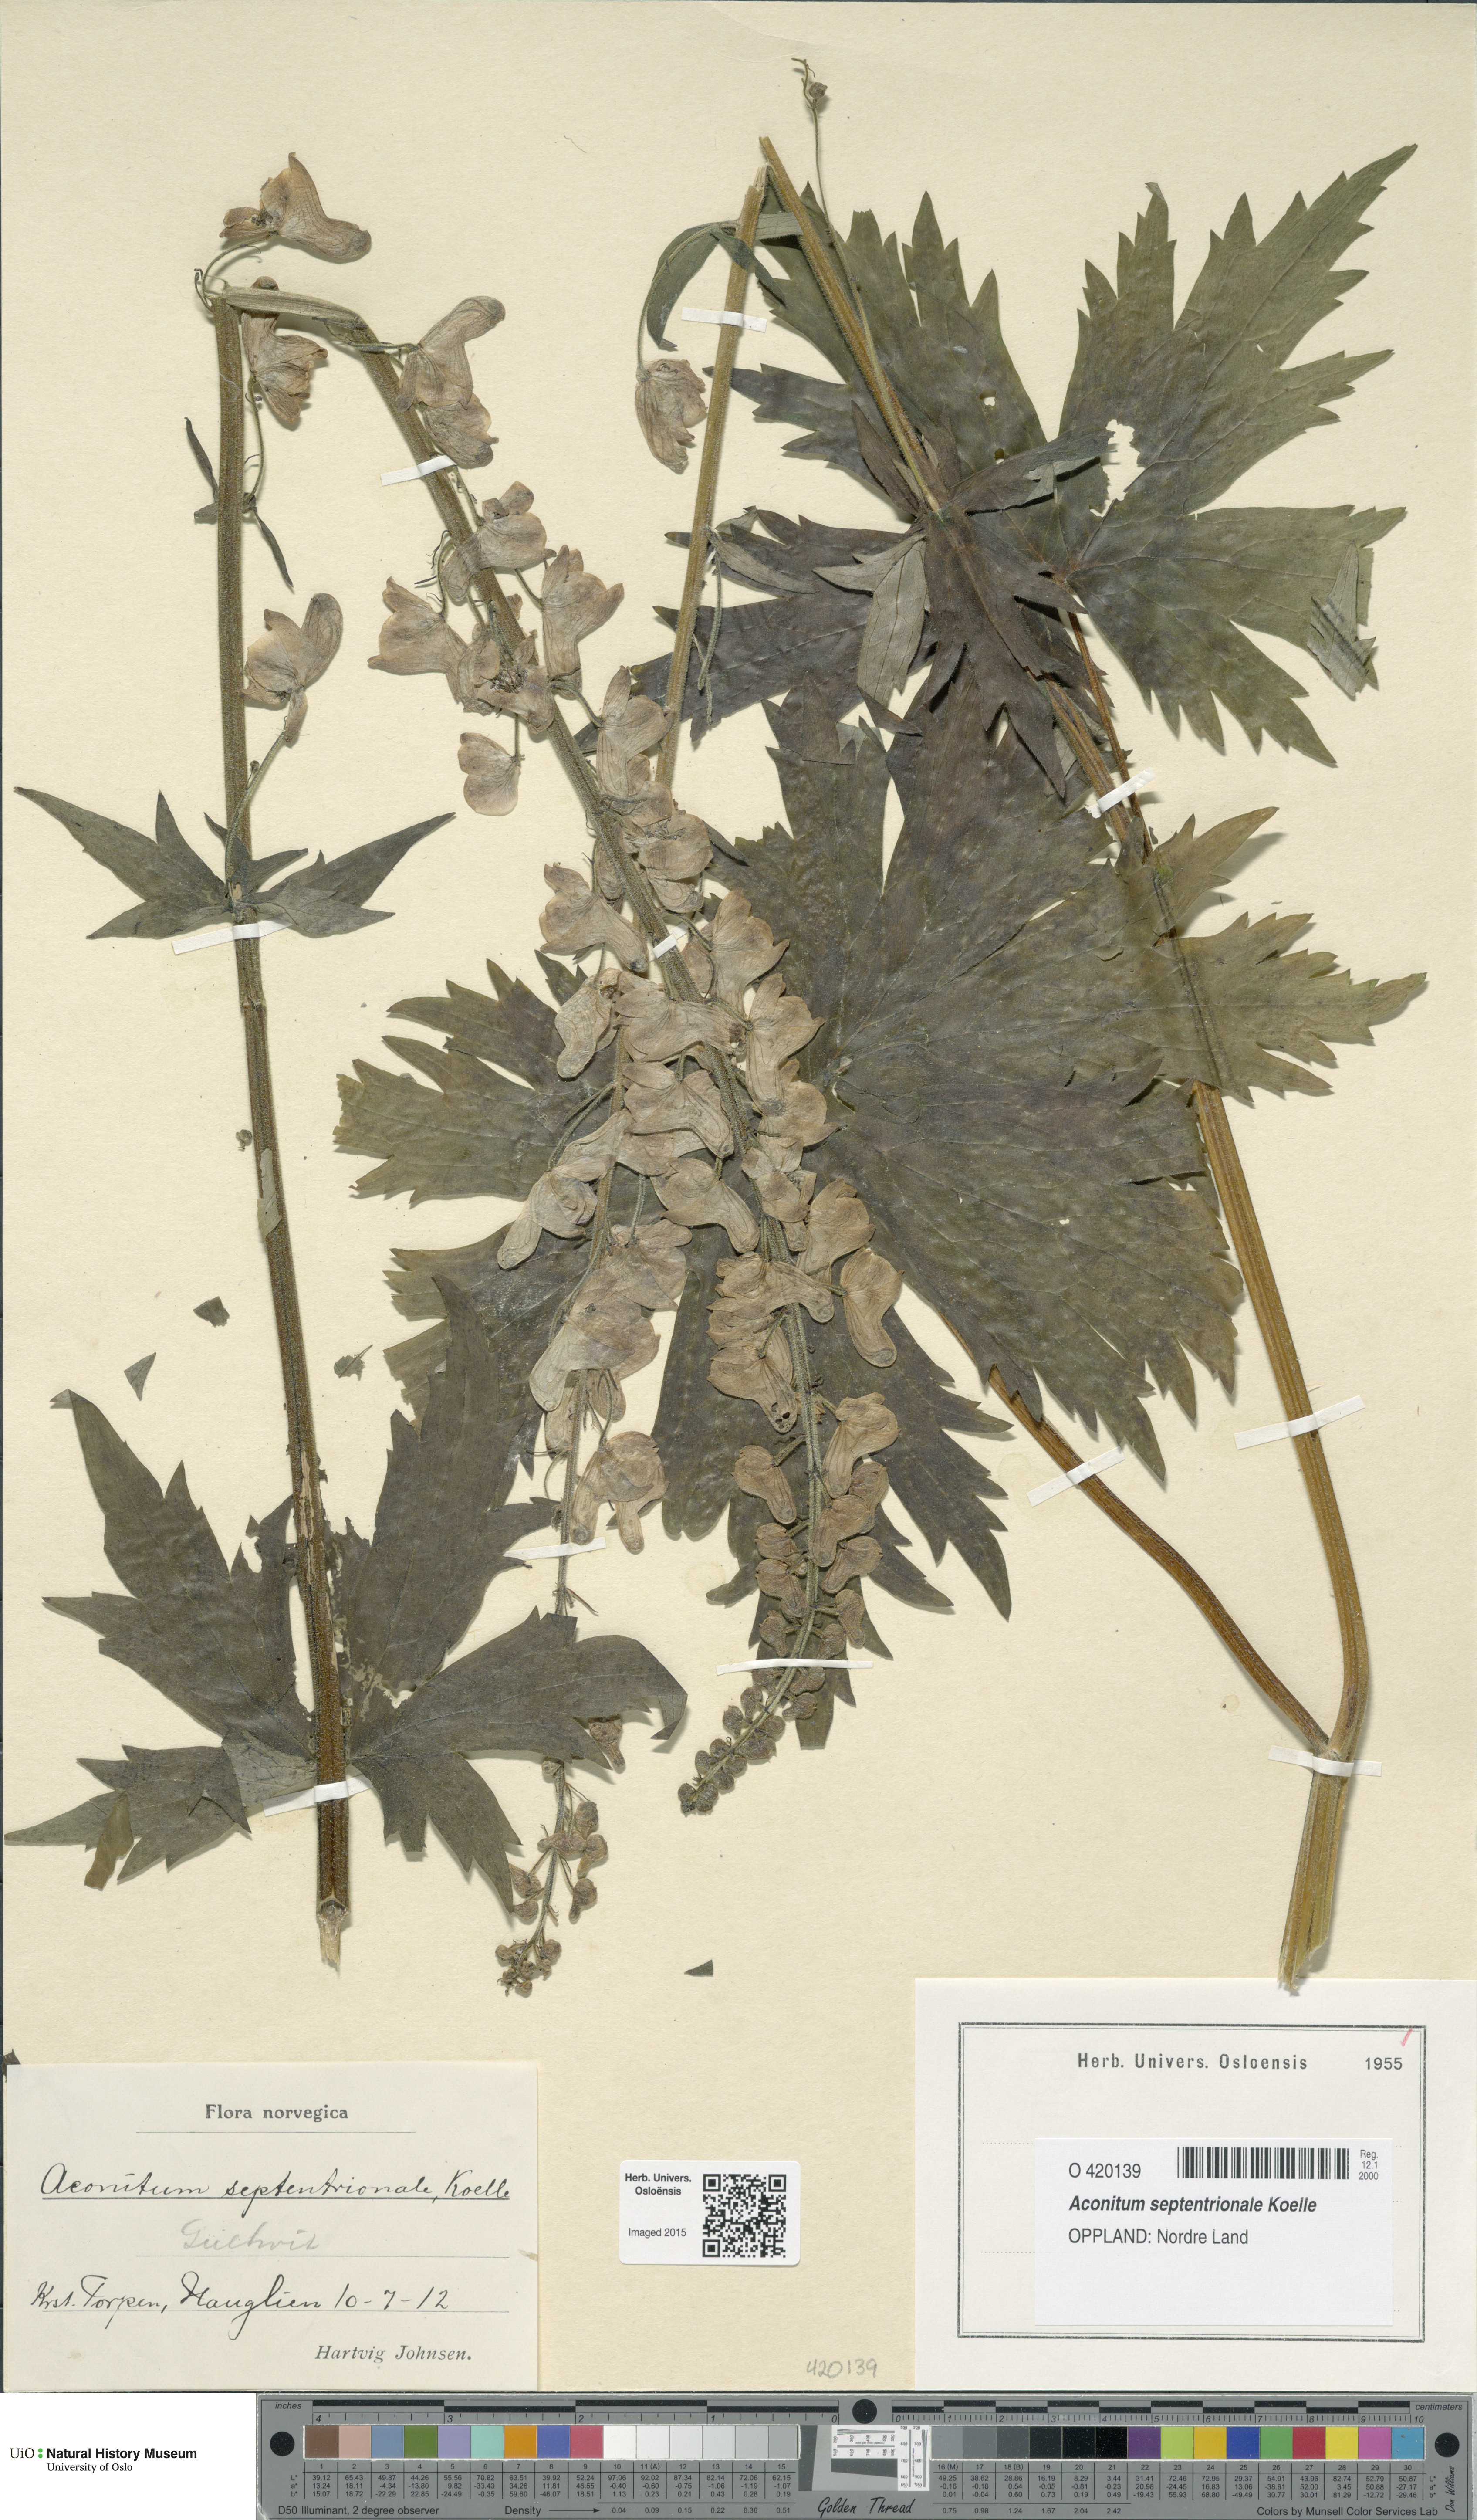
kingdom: Plantae
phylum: Tracheophyta
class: Magnoliopsida
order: Ranunculales
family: Ranunculaceae
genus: Aconitum
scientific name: Aconitum septentrionale
